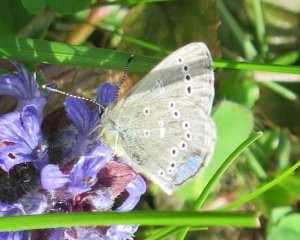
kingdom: Animalia
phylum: Arthropoda
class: Insecta
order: Lepidoptera
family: Lycaenidae
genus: Glaucopsyche
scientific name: Glaucopsyche lygdamus
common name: Silvery Blue
